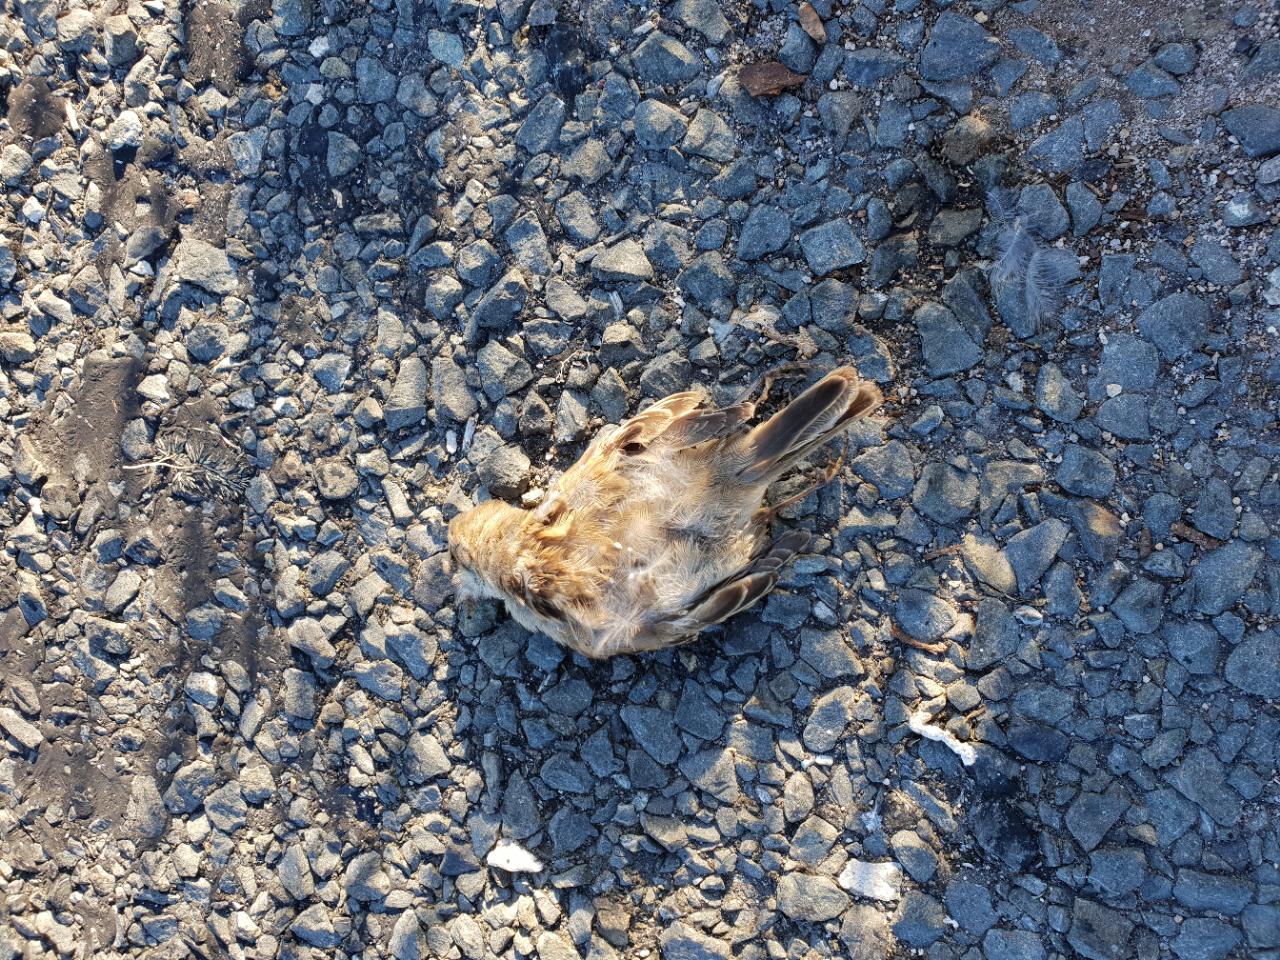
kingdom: Animalia
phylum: Chordata
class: Aves
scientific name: Aves
